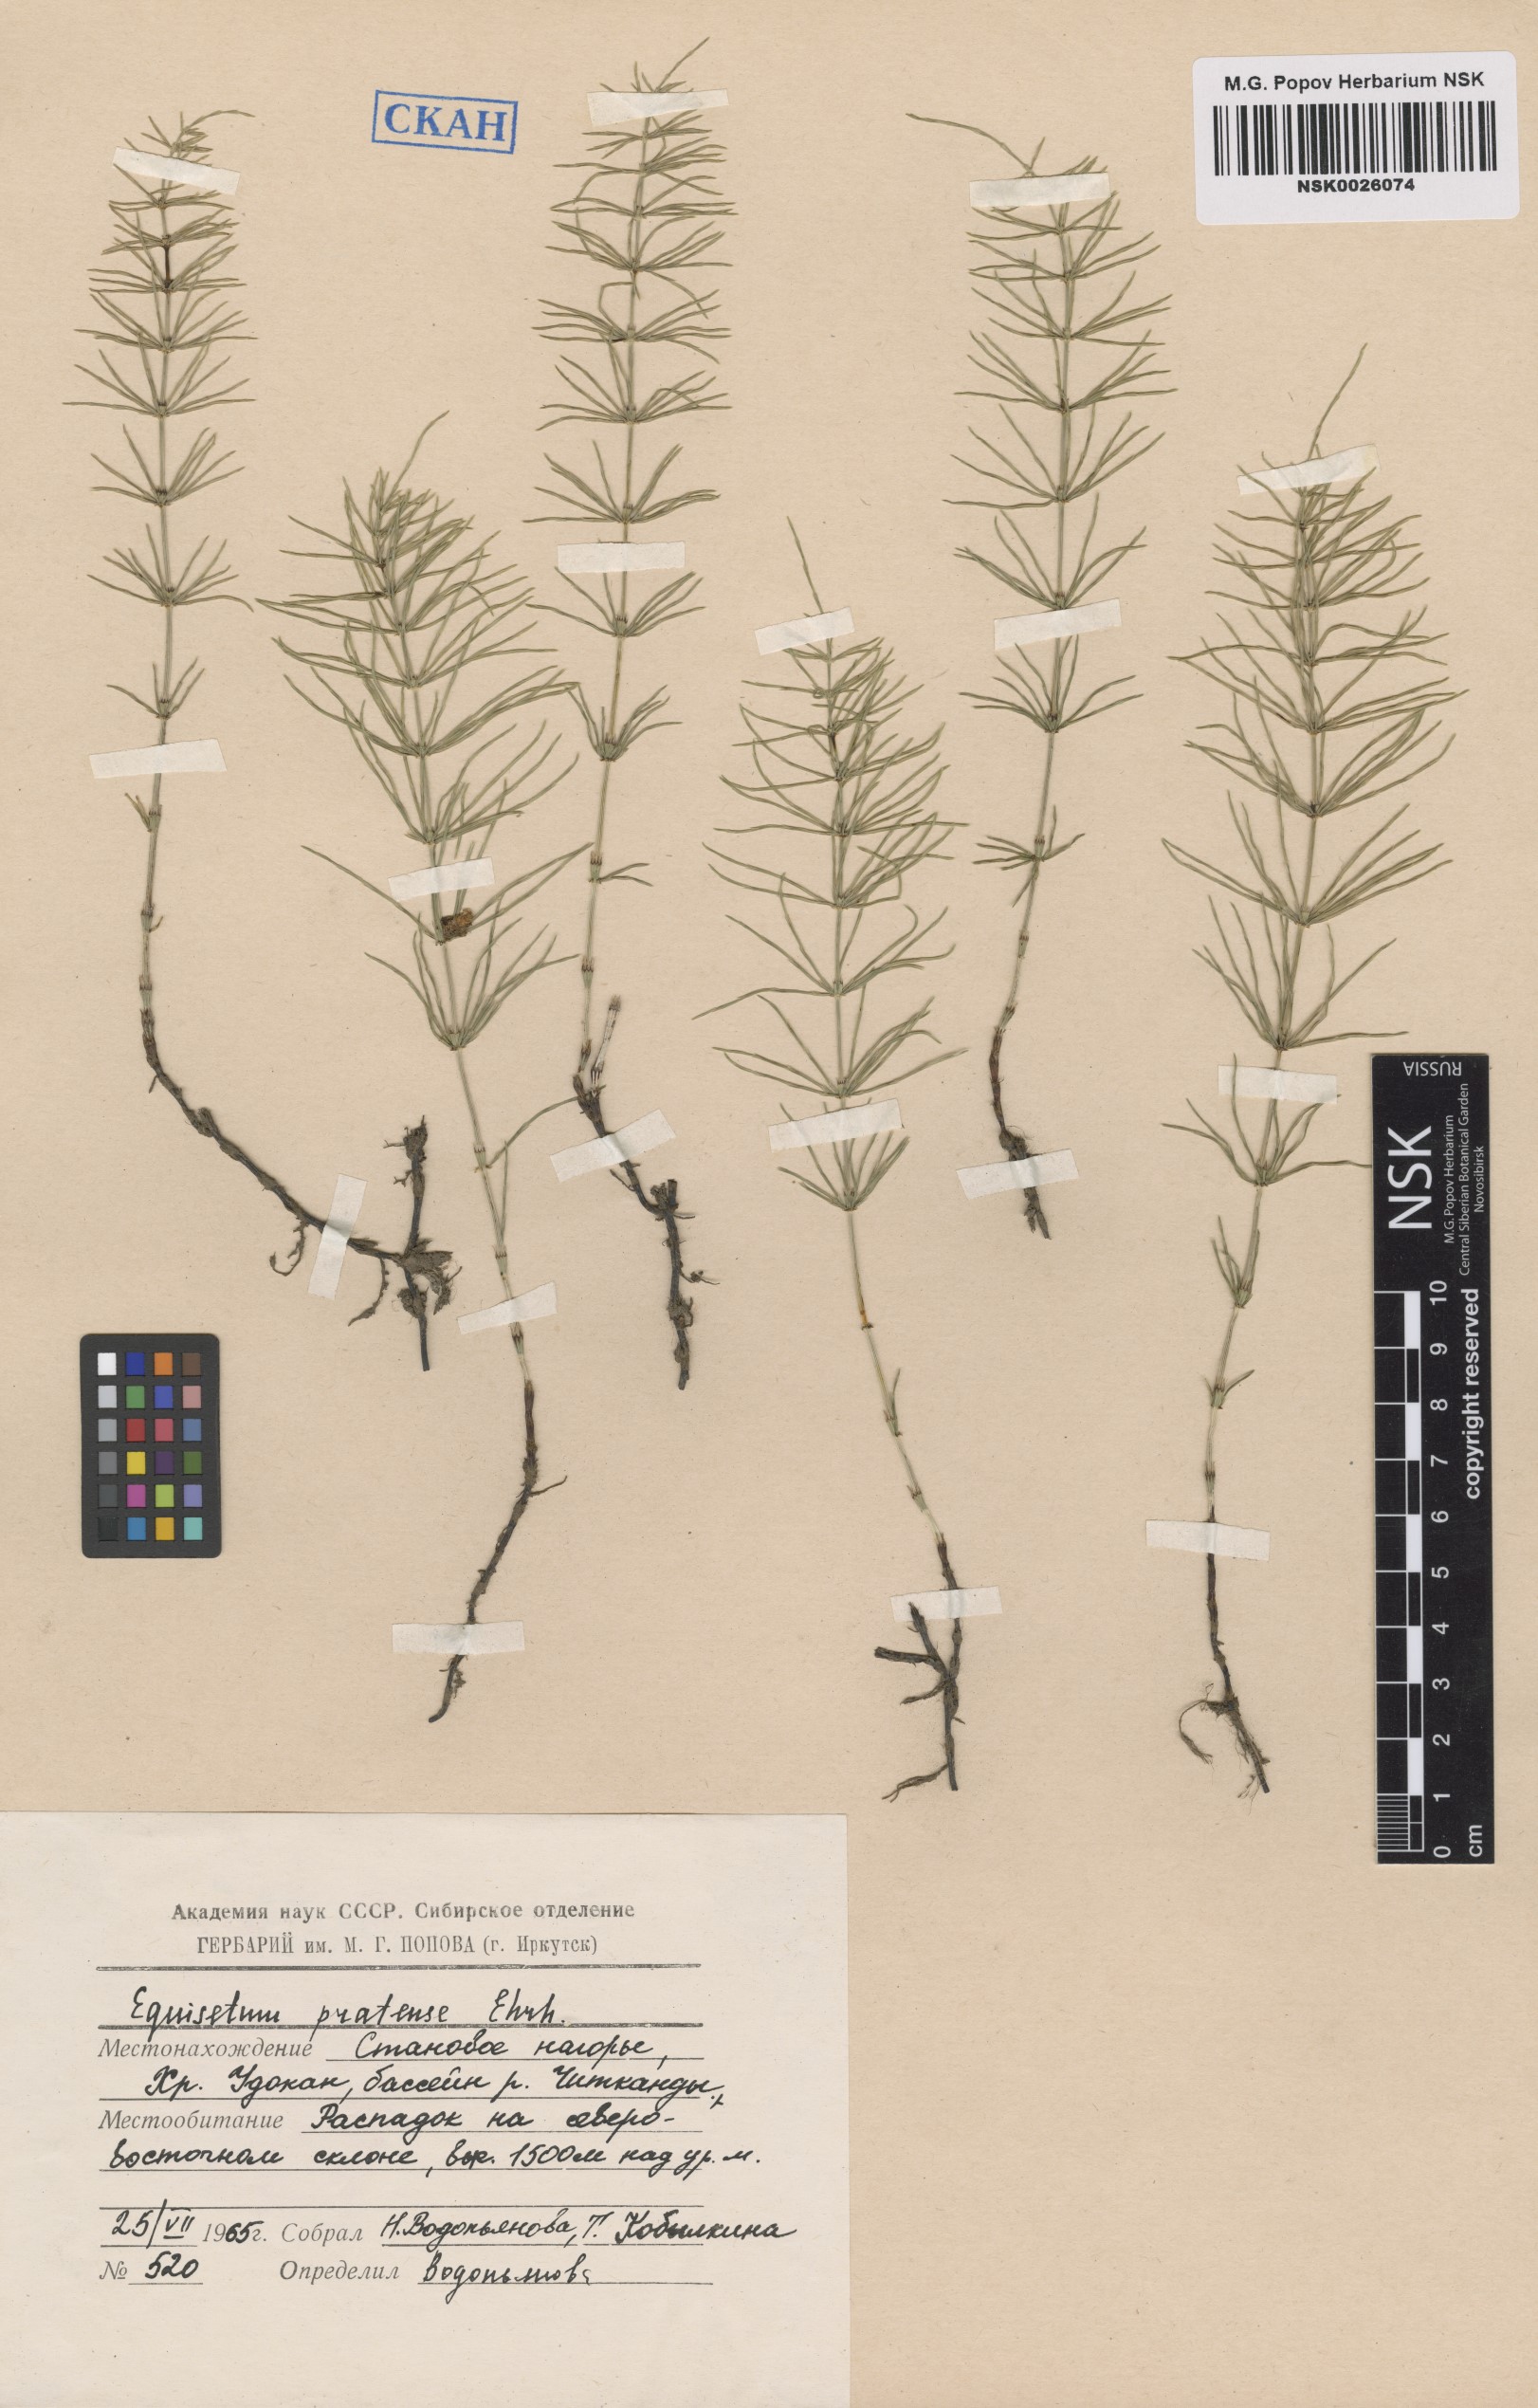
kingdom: Plantae
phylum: Tracheophyta
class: Polypodiopsida
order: Equisetales
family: Equisetaceae
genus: Equisetum
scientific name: Equisetum pratense
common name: Meadow horsetail
